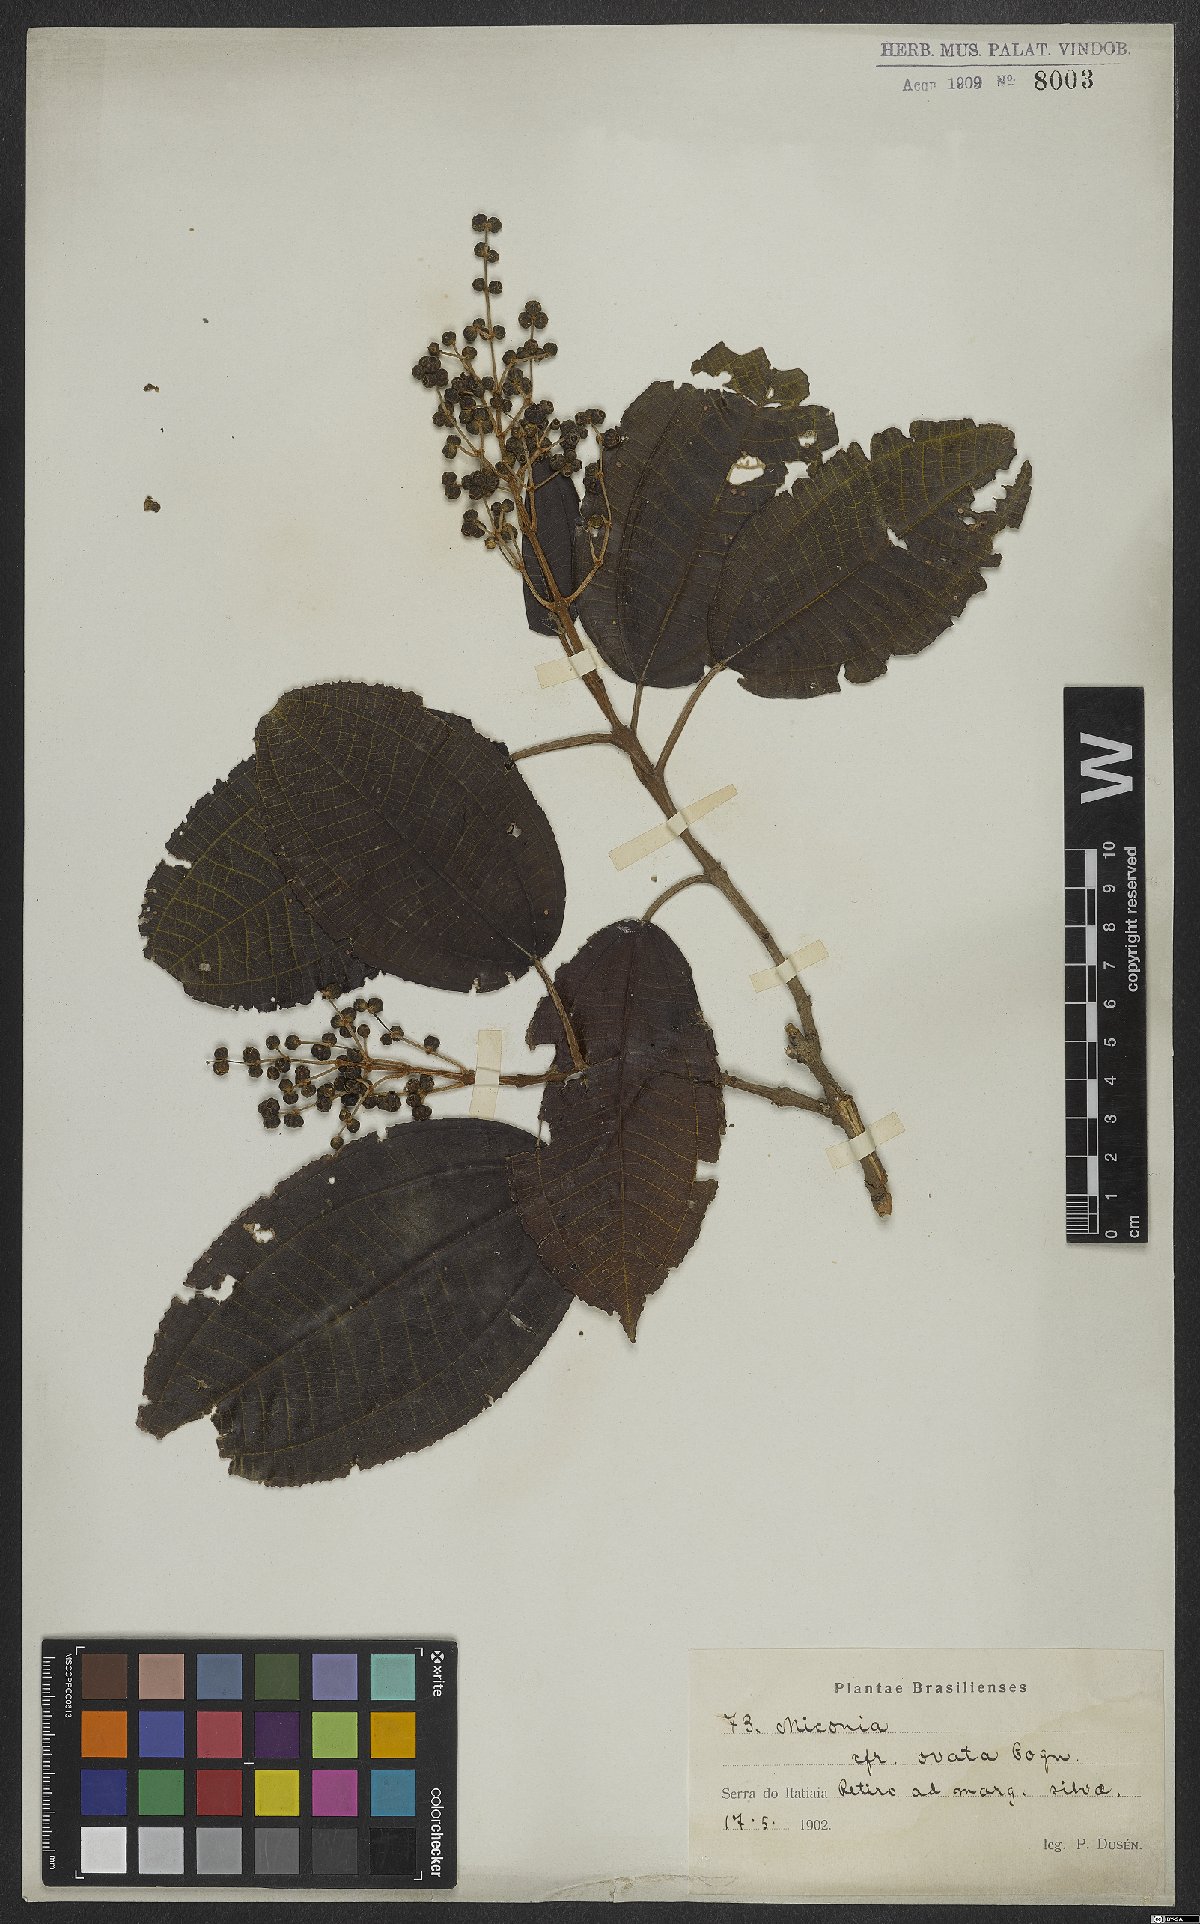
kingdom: Plantae
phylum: Tracheophyta
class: Magnoliopsida
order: Myrtales
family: Melastomataceae
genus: Miconia
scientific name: Miconia organensis
